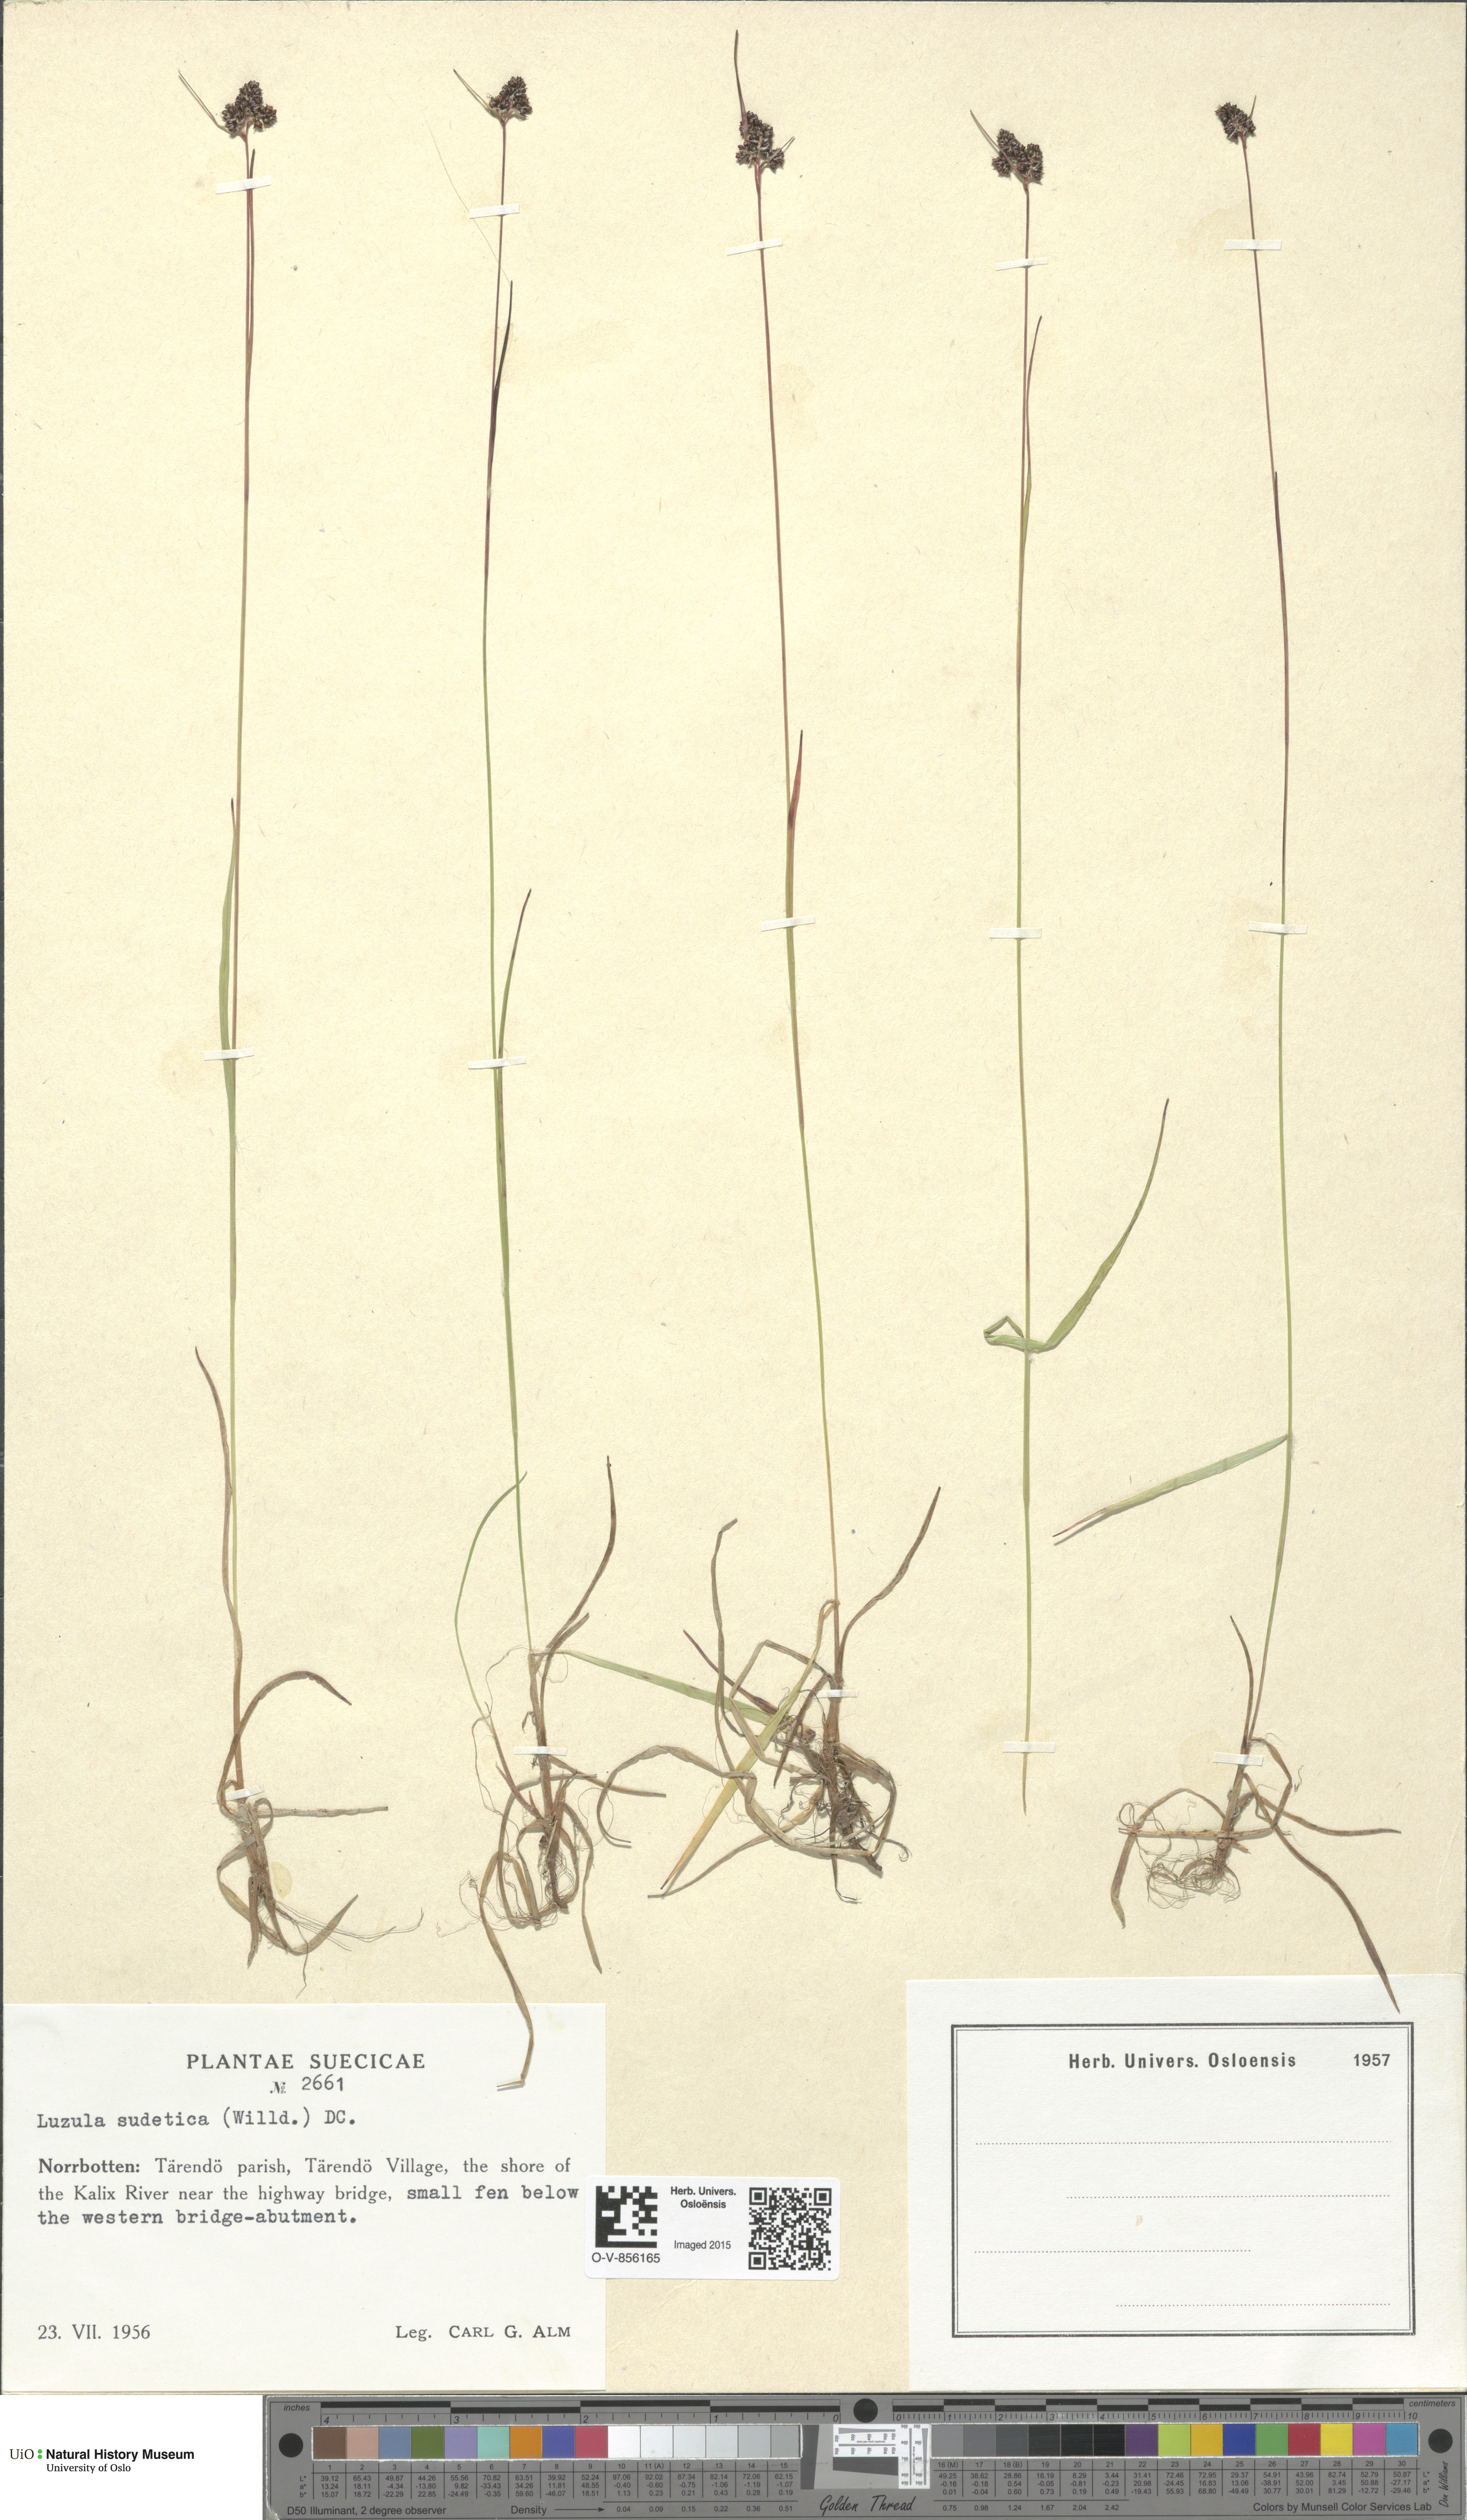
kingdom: Plantae
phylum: Tracheophyta
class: Liliopsida
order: Poales
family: Juncaceae
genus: Luzula
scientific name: Luzula sudetica
